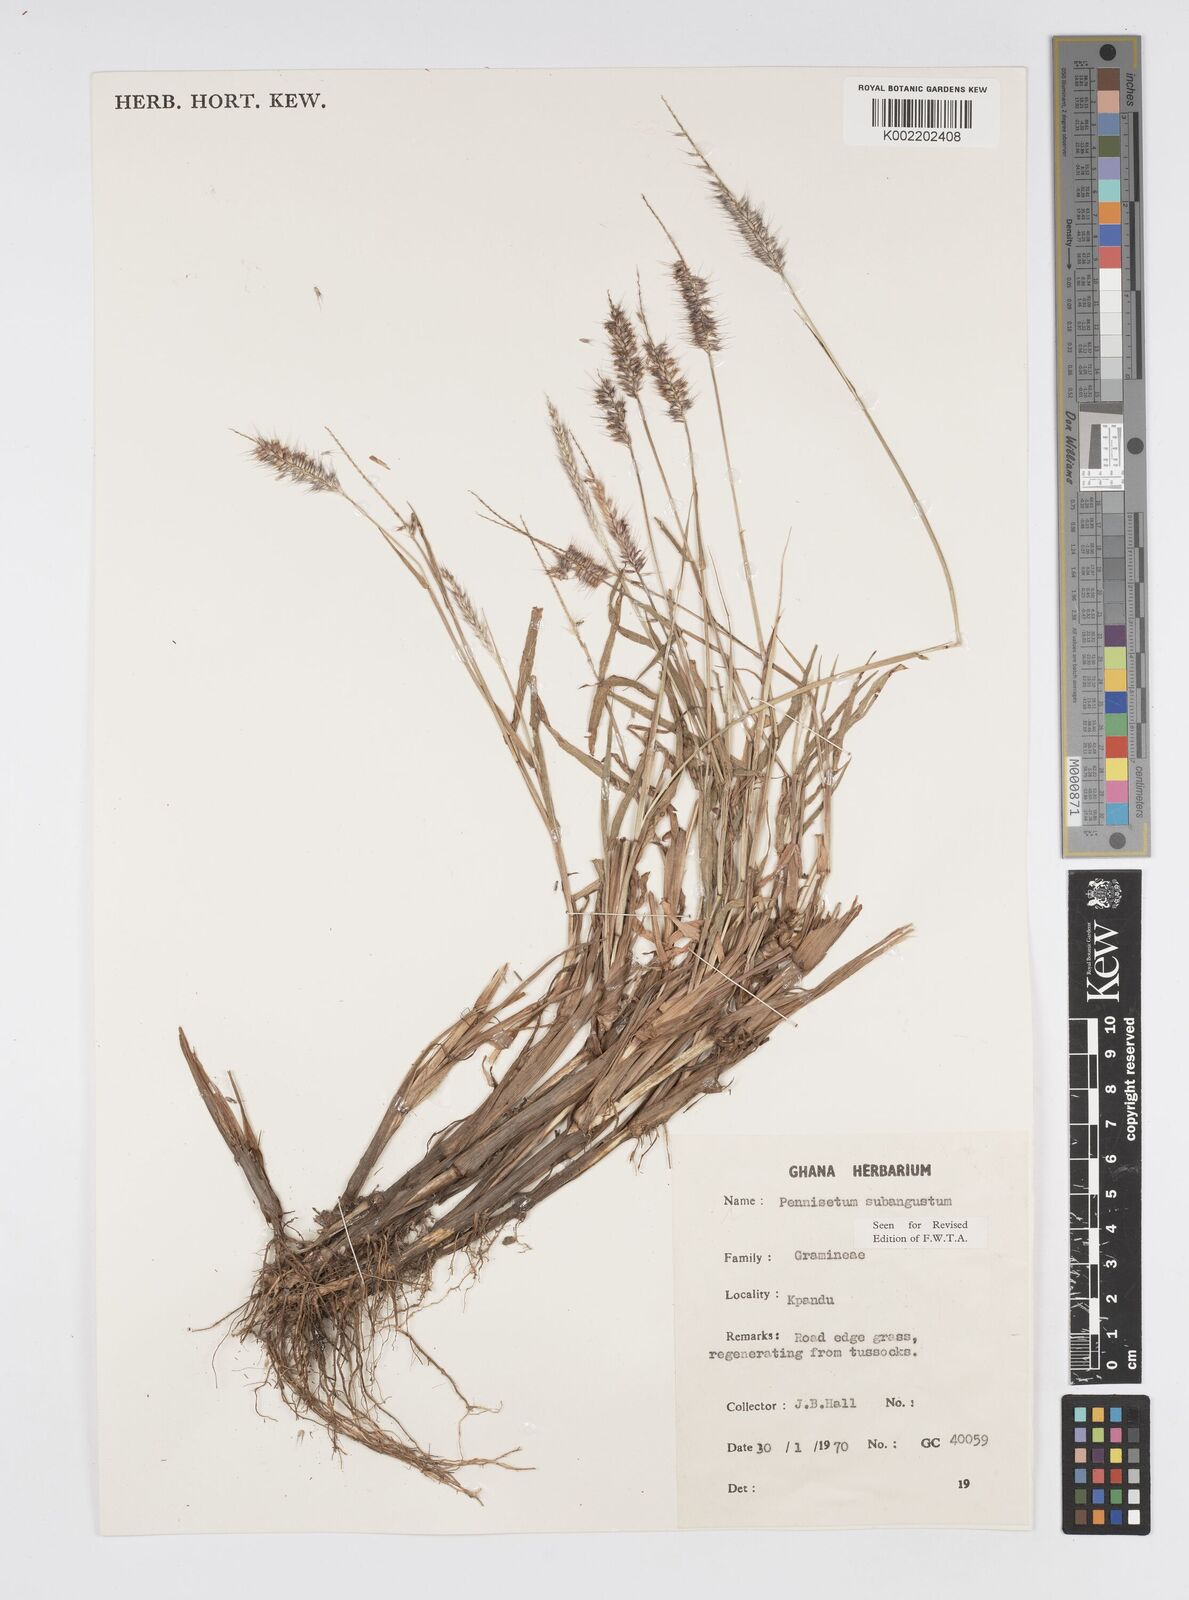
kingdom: Plantae
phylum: Tracheophyta
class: Liliopsida
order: Poales
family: Poaceae
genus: Setaria
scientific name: Setaria parviflora
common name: Knotroot bristle-grass
